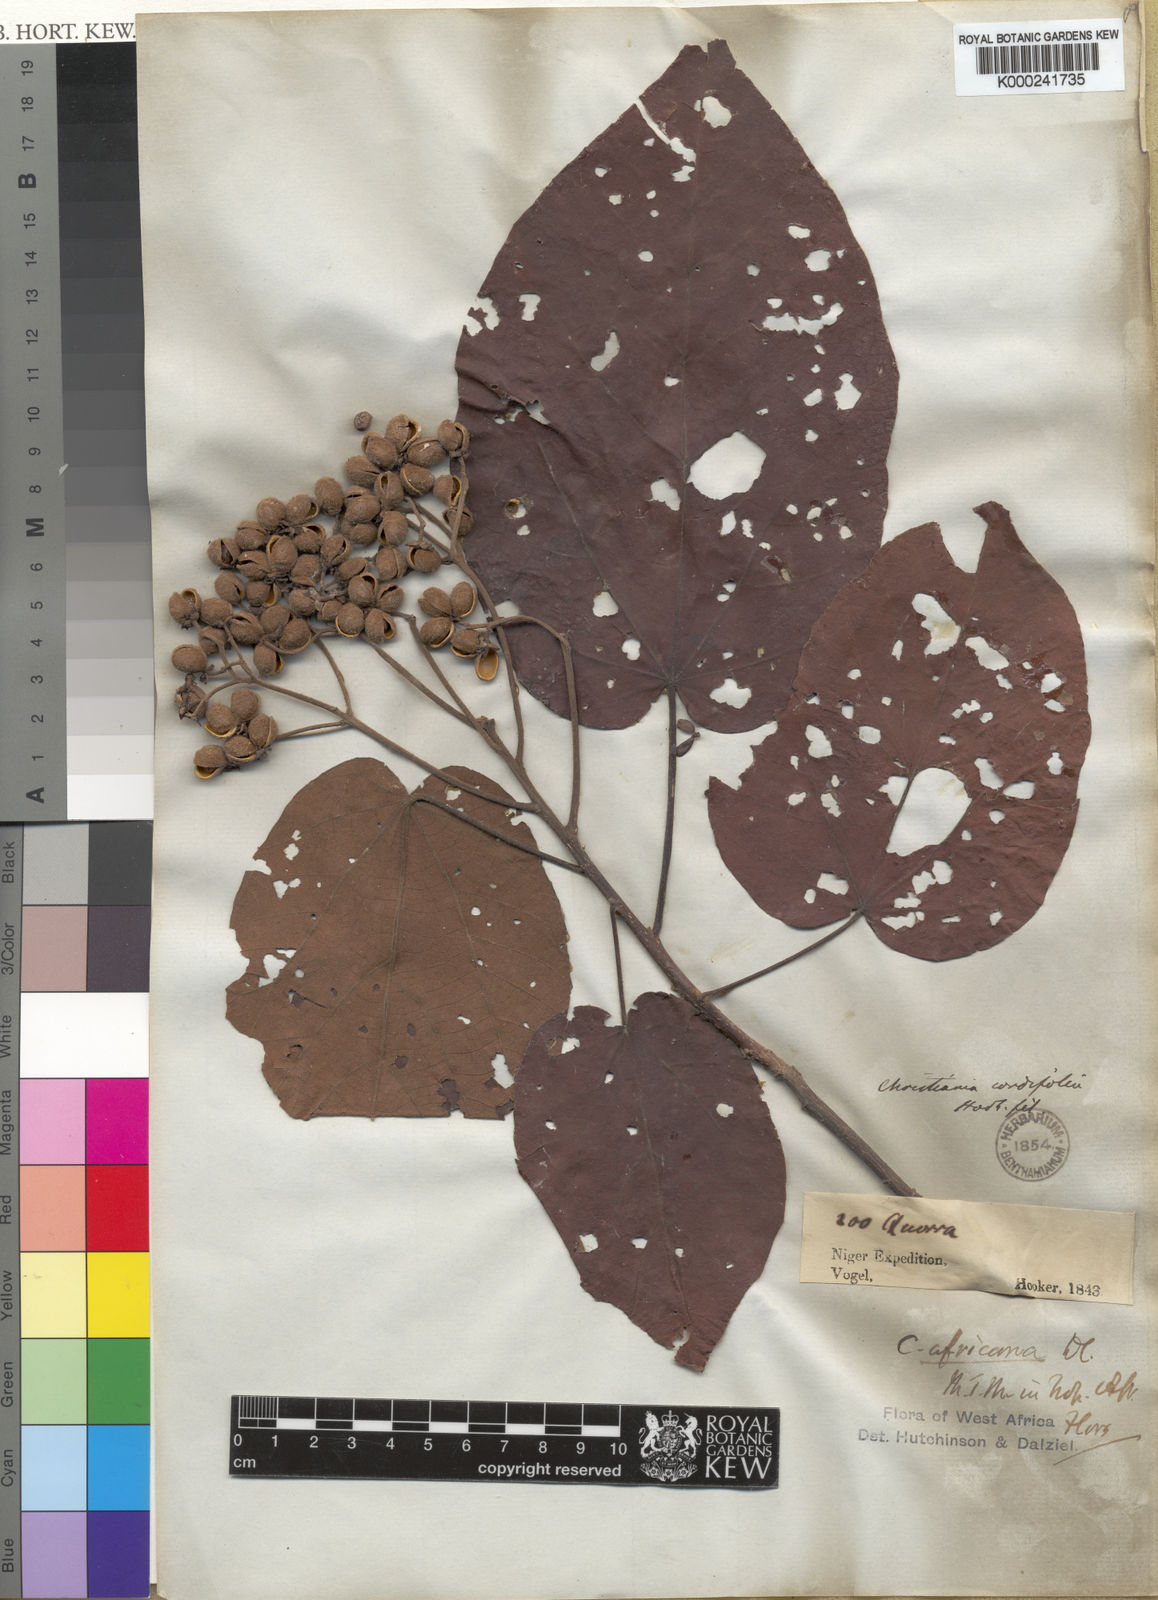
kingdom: Plantae
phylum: Tracheophyta
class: Magnoliopsida
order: Malvales
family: Malvaceae
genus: Christiana
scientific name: Christiana africana
